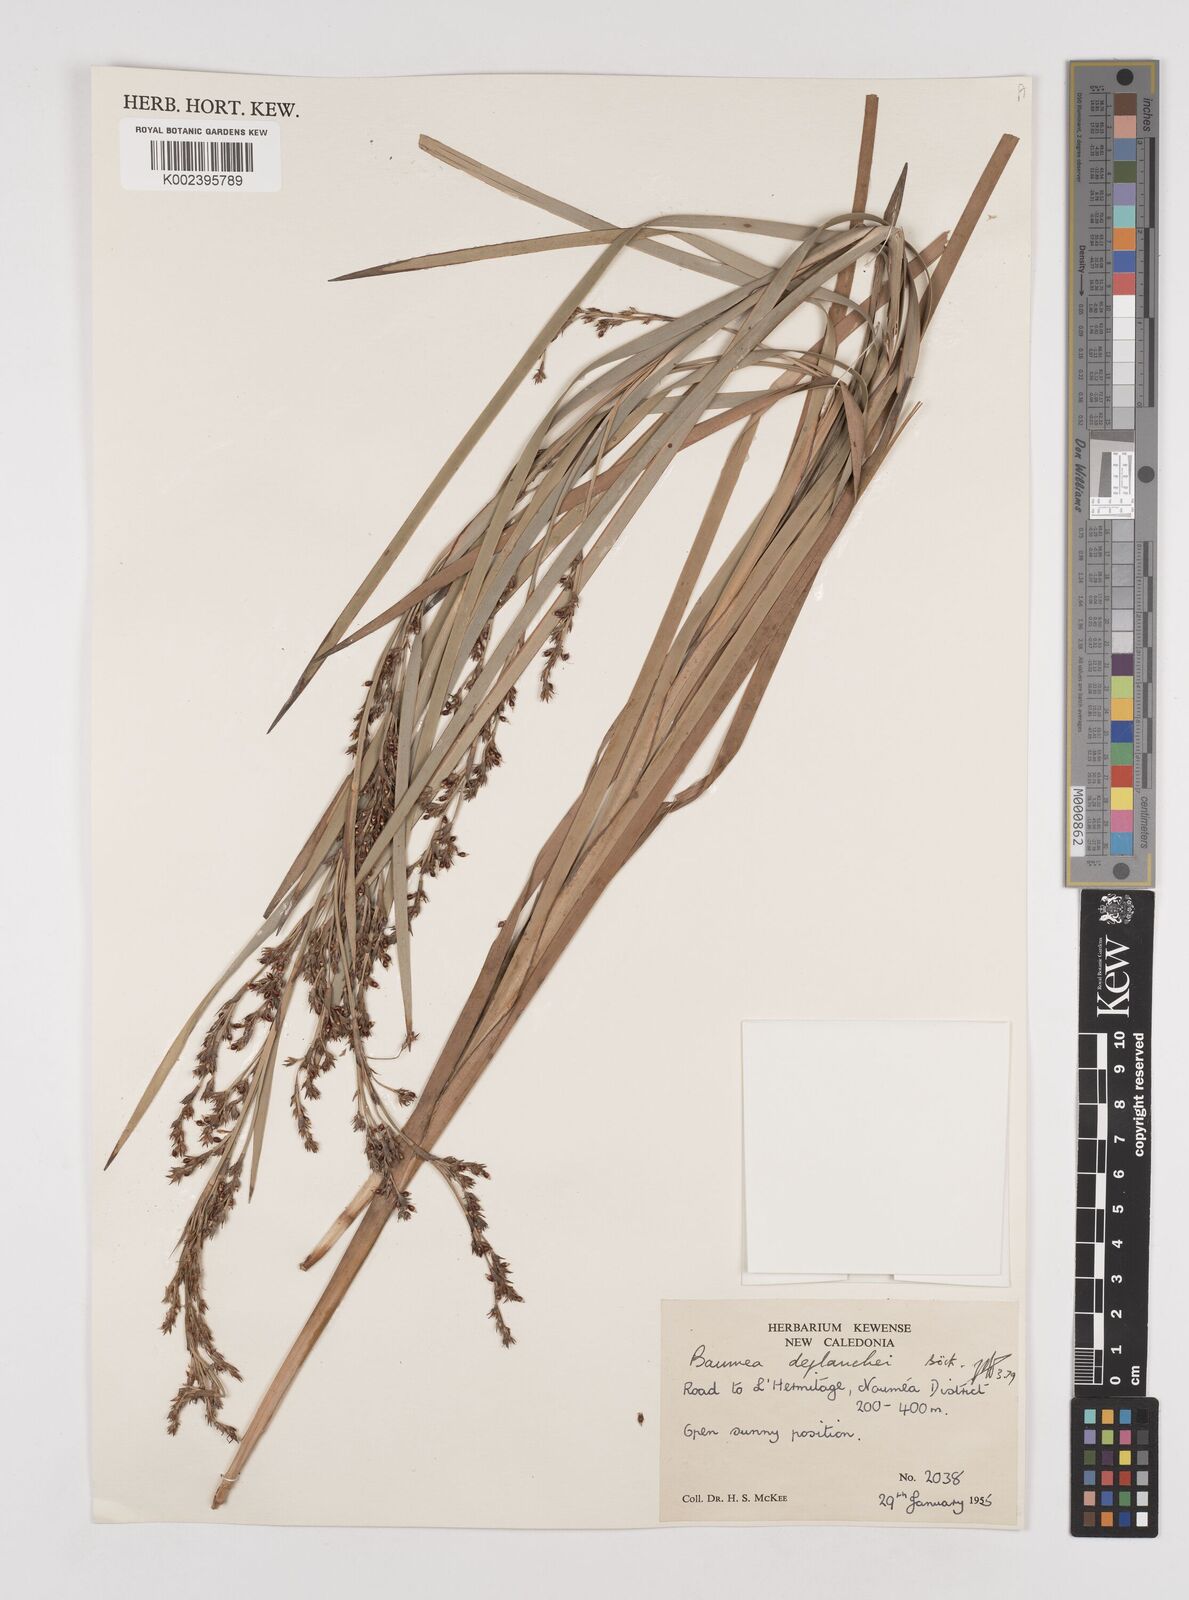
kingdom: Plantae
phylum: Tracheophyta
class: Liliopsida
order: Poales
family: Cyperaceae
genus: Machaerina
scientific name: Machaerina deplanchei
